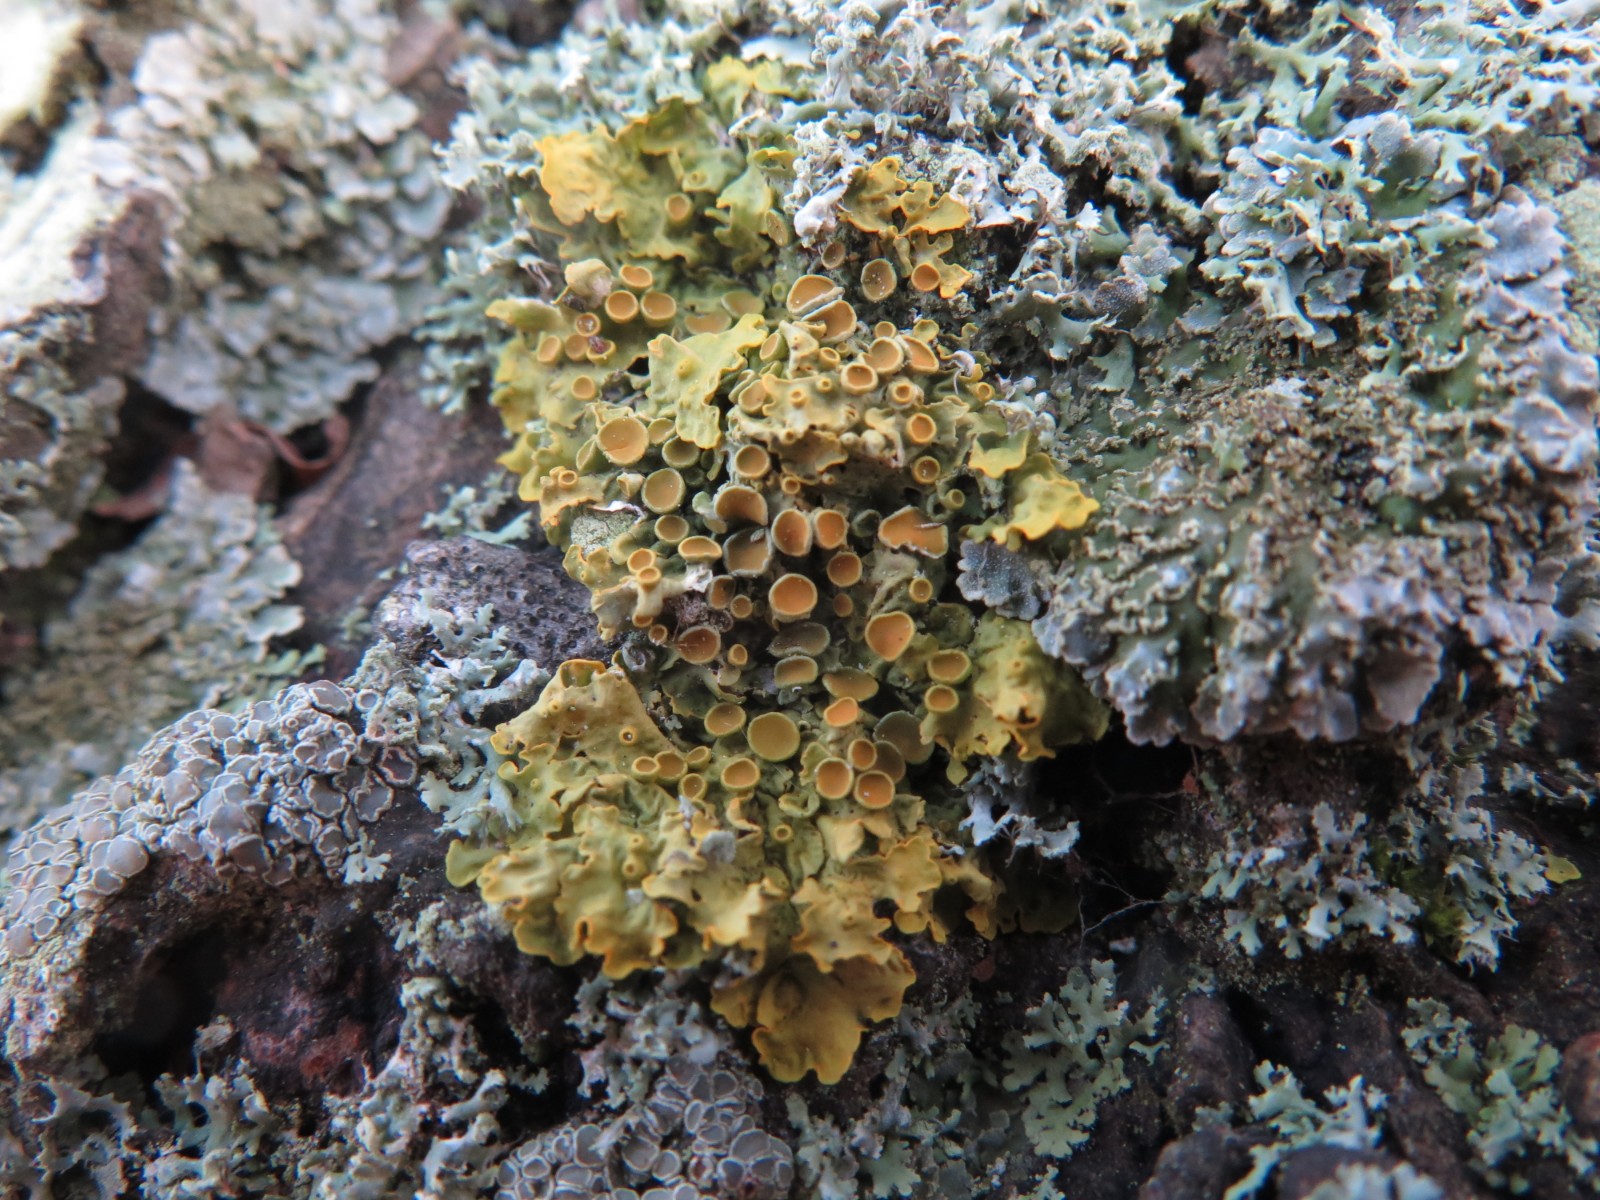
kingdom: Fungi
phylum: Ascomycota
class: Lecanoromycetes
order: Teloschistales
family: Teloschistaceae
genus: Xanthoria
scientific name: Xanthoria parietina
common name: almindelig væggelav
